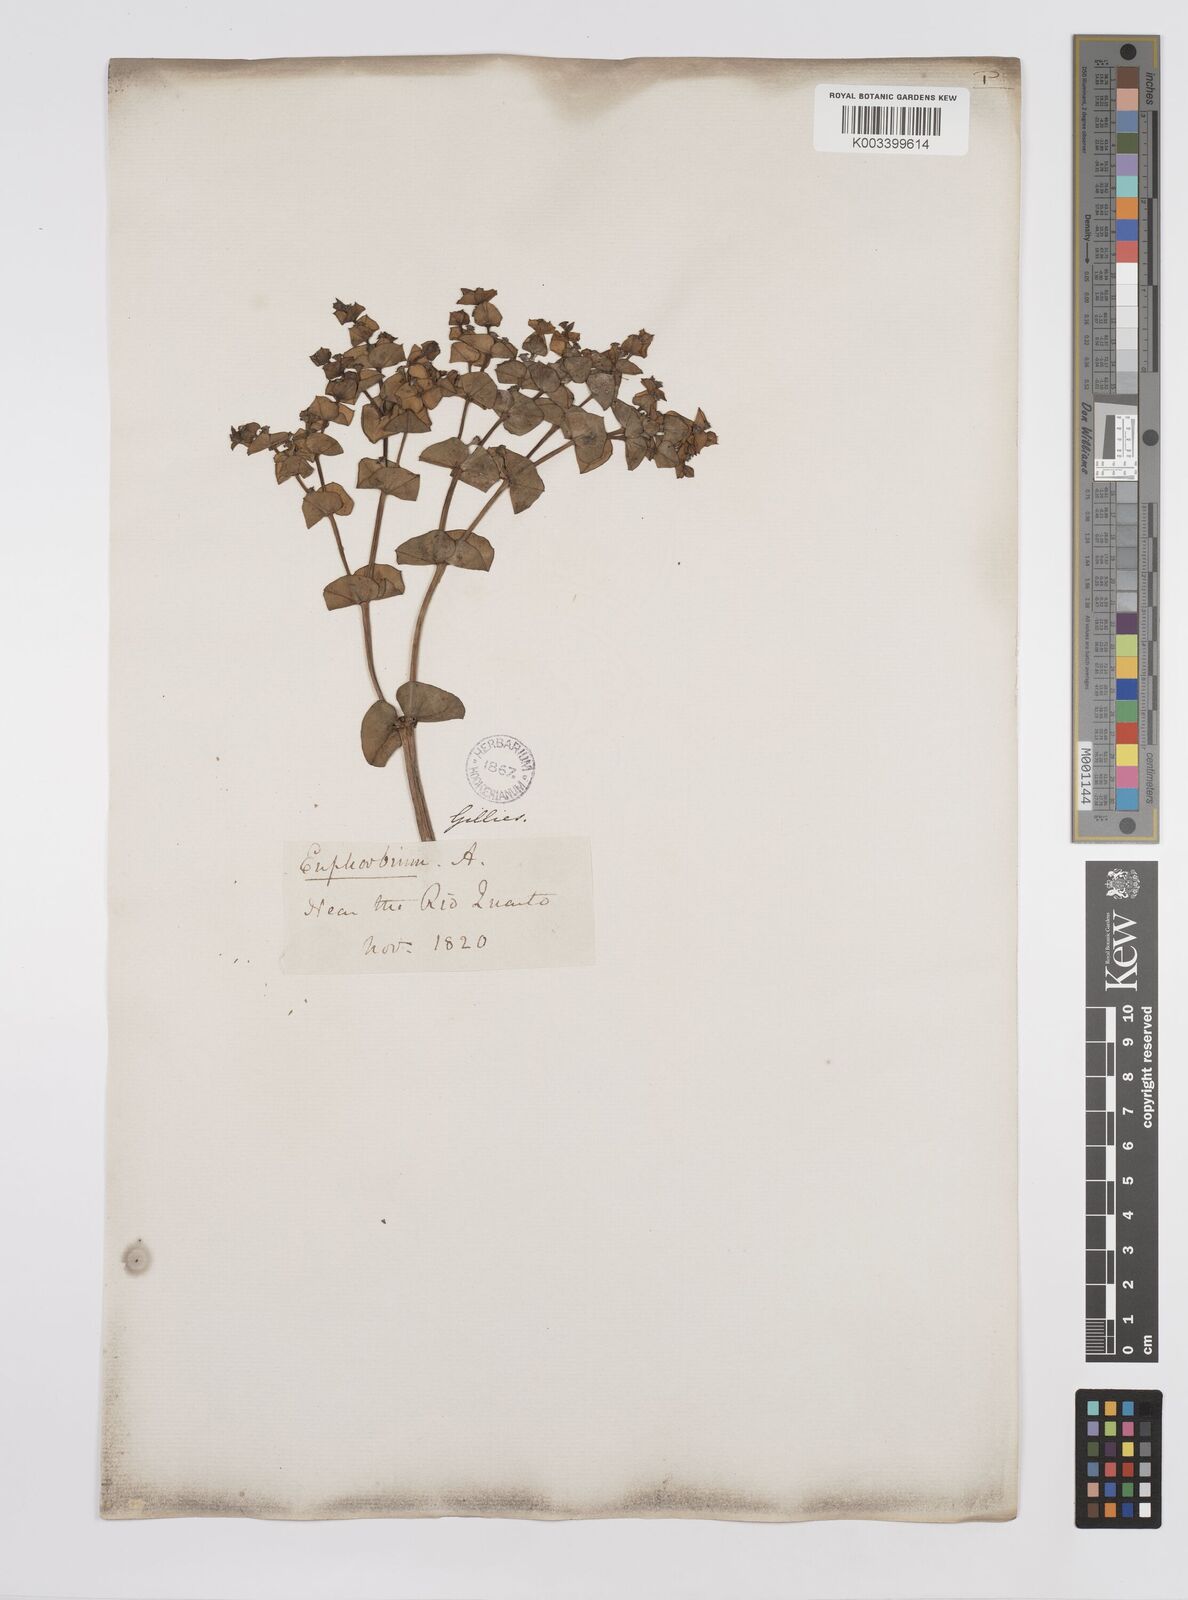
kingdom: Plantae
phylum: Tracheophyta
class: Magnoliopsida
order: Malpighiales
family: Euphorbiaceae
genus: Euphorbia
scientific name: Euphorbia portulacoides
